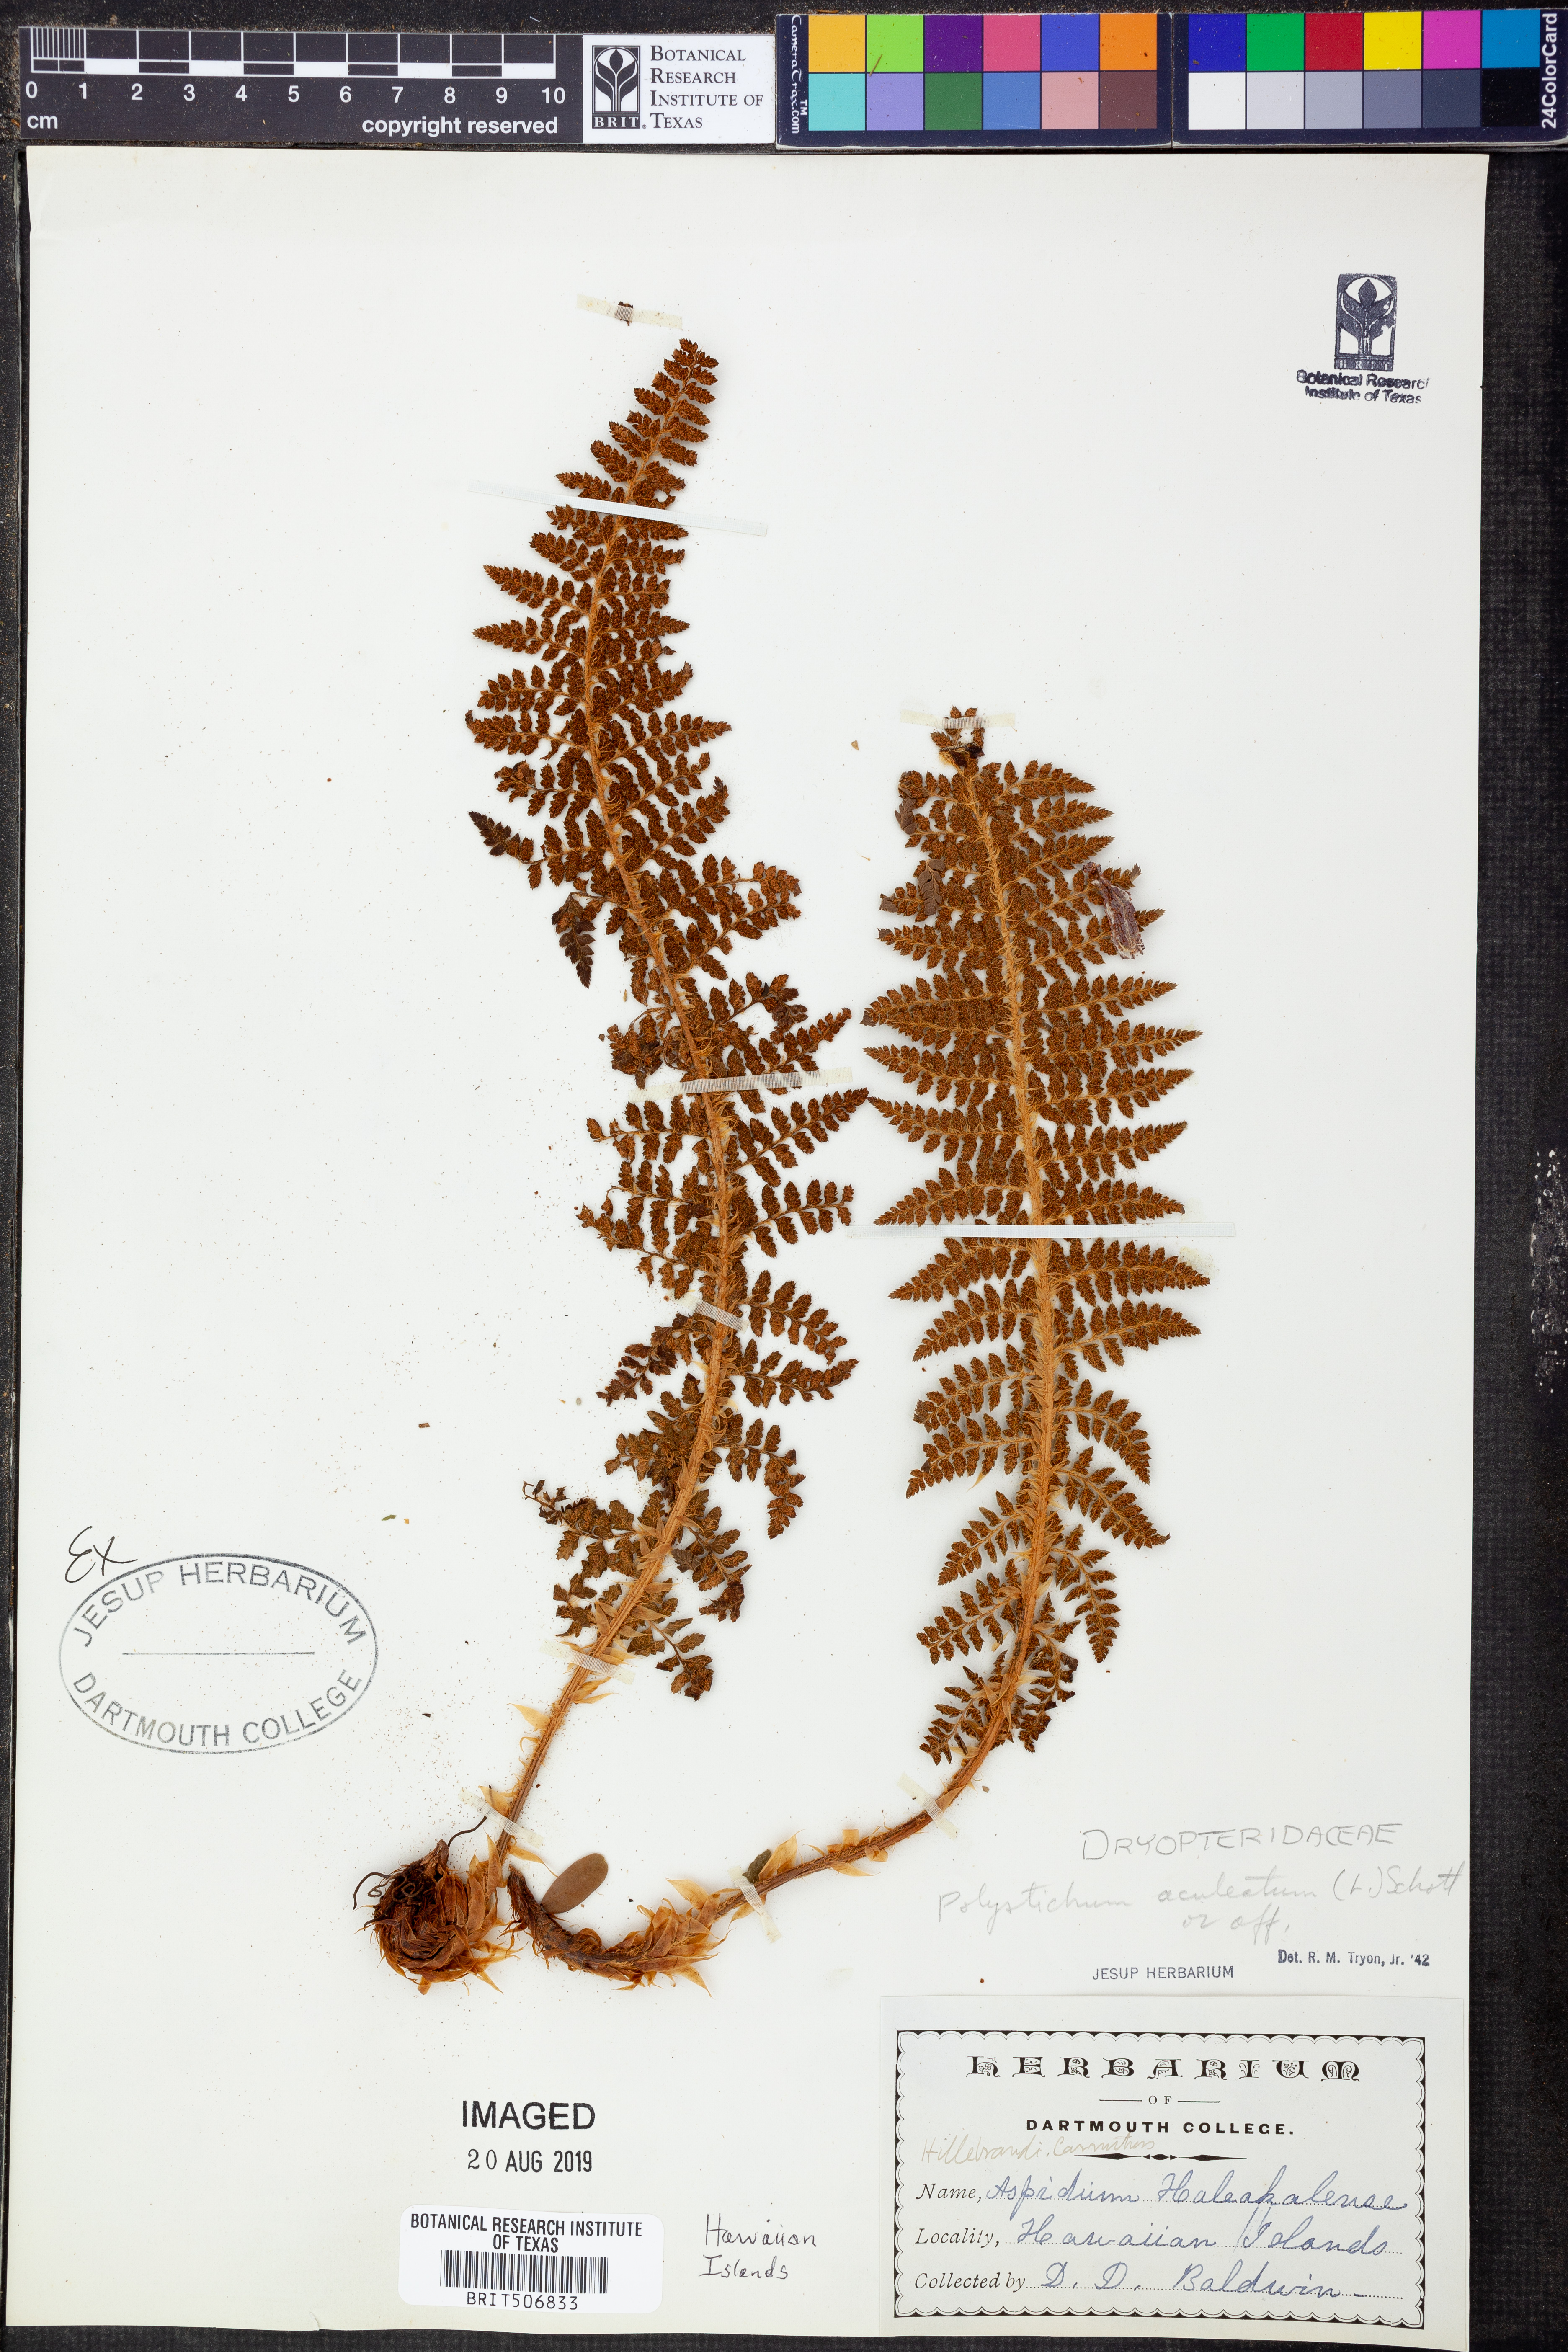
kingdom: Plantae
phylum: Tracheophyta
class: Polypodiopsida
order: Polypodiales
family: Dryopteridaceae
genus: Polystichum
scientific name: Polystichum aculeatum
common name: Hard shield-fern
